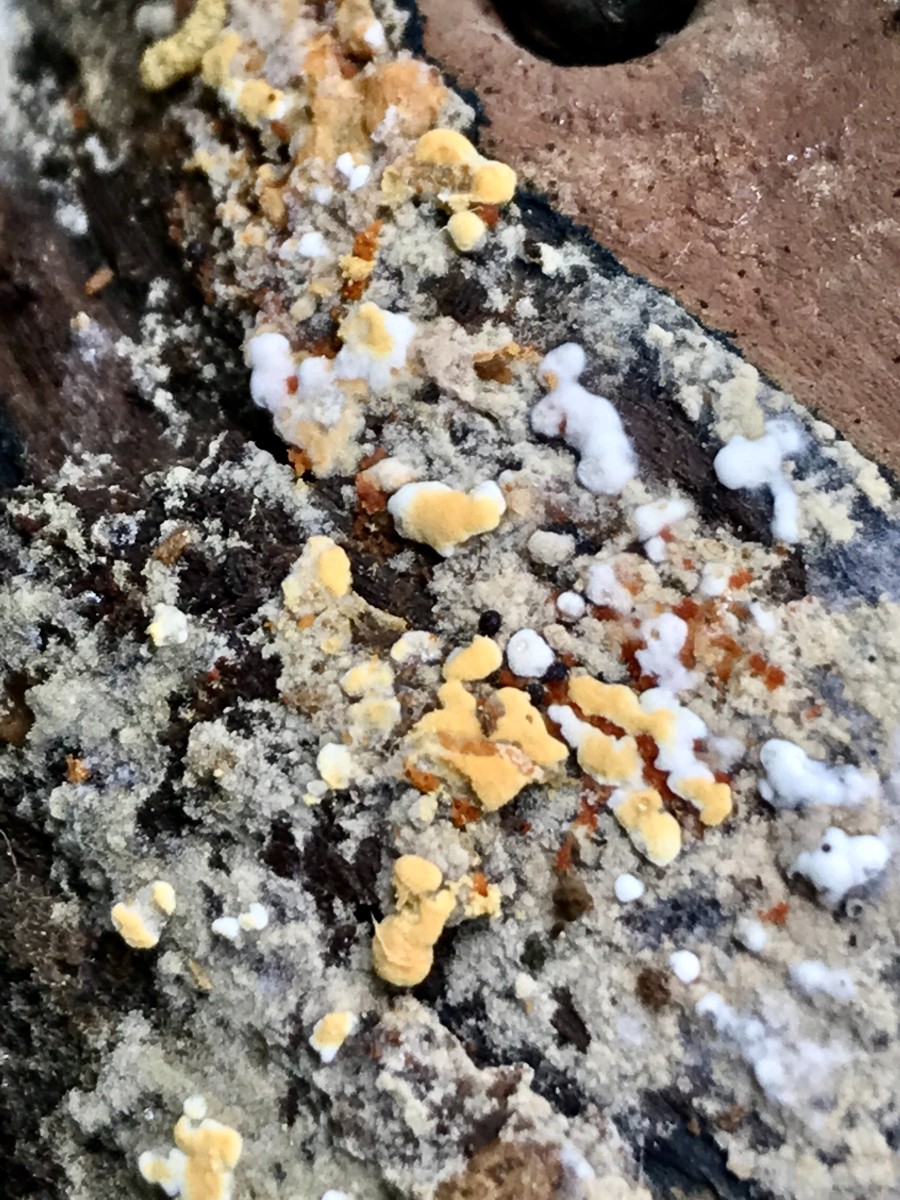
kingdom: Fungi
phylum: Basidiomycota
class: Agaricomycetes
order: Cantharellales
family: Botryobasidiaceae
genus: Botryobasidium
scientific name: Botryobasidium aureum
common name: gylden spindhinde
